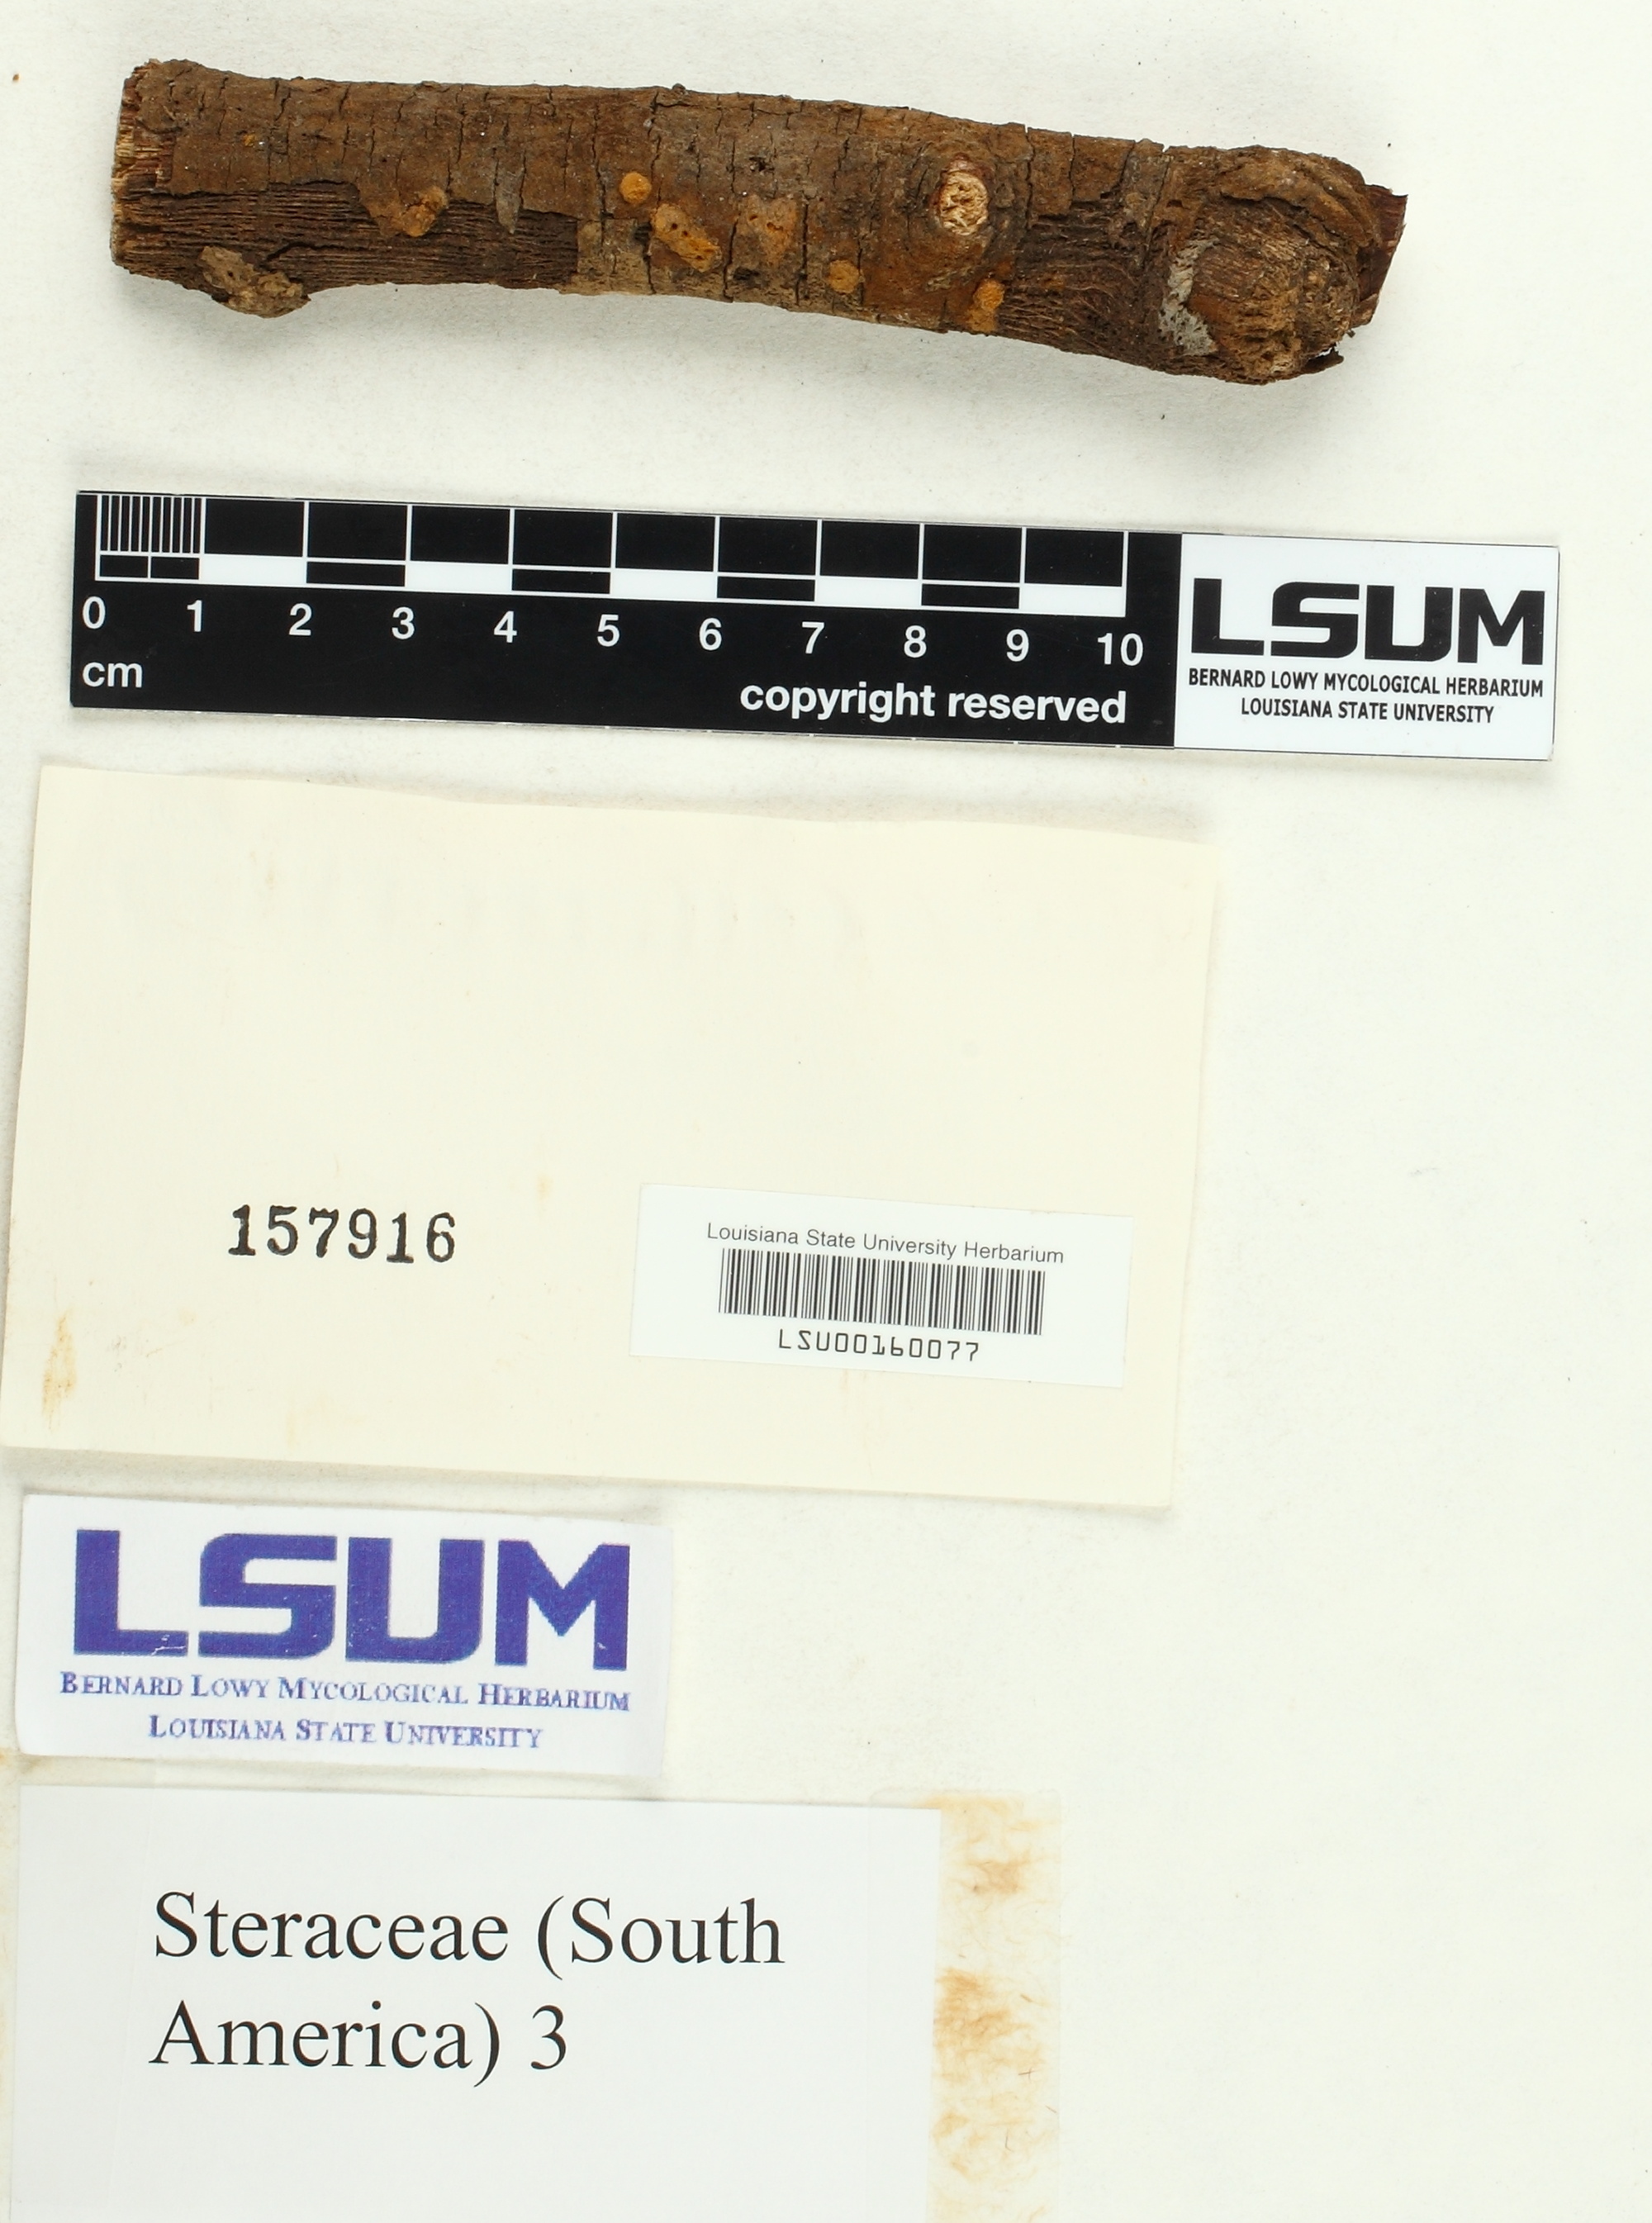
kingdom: Fungi
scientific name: Fungi
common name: Fungi
